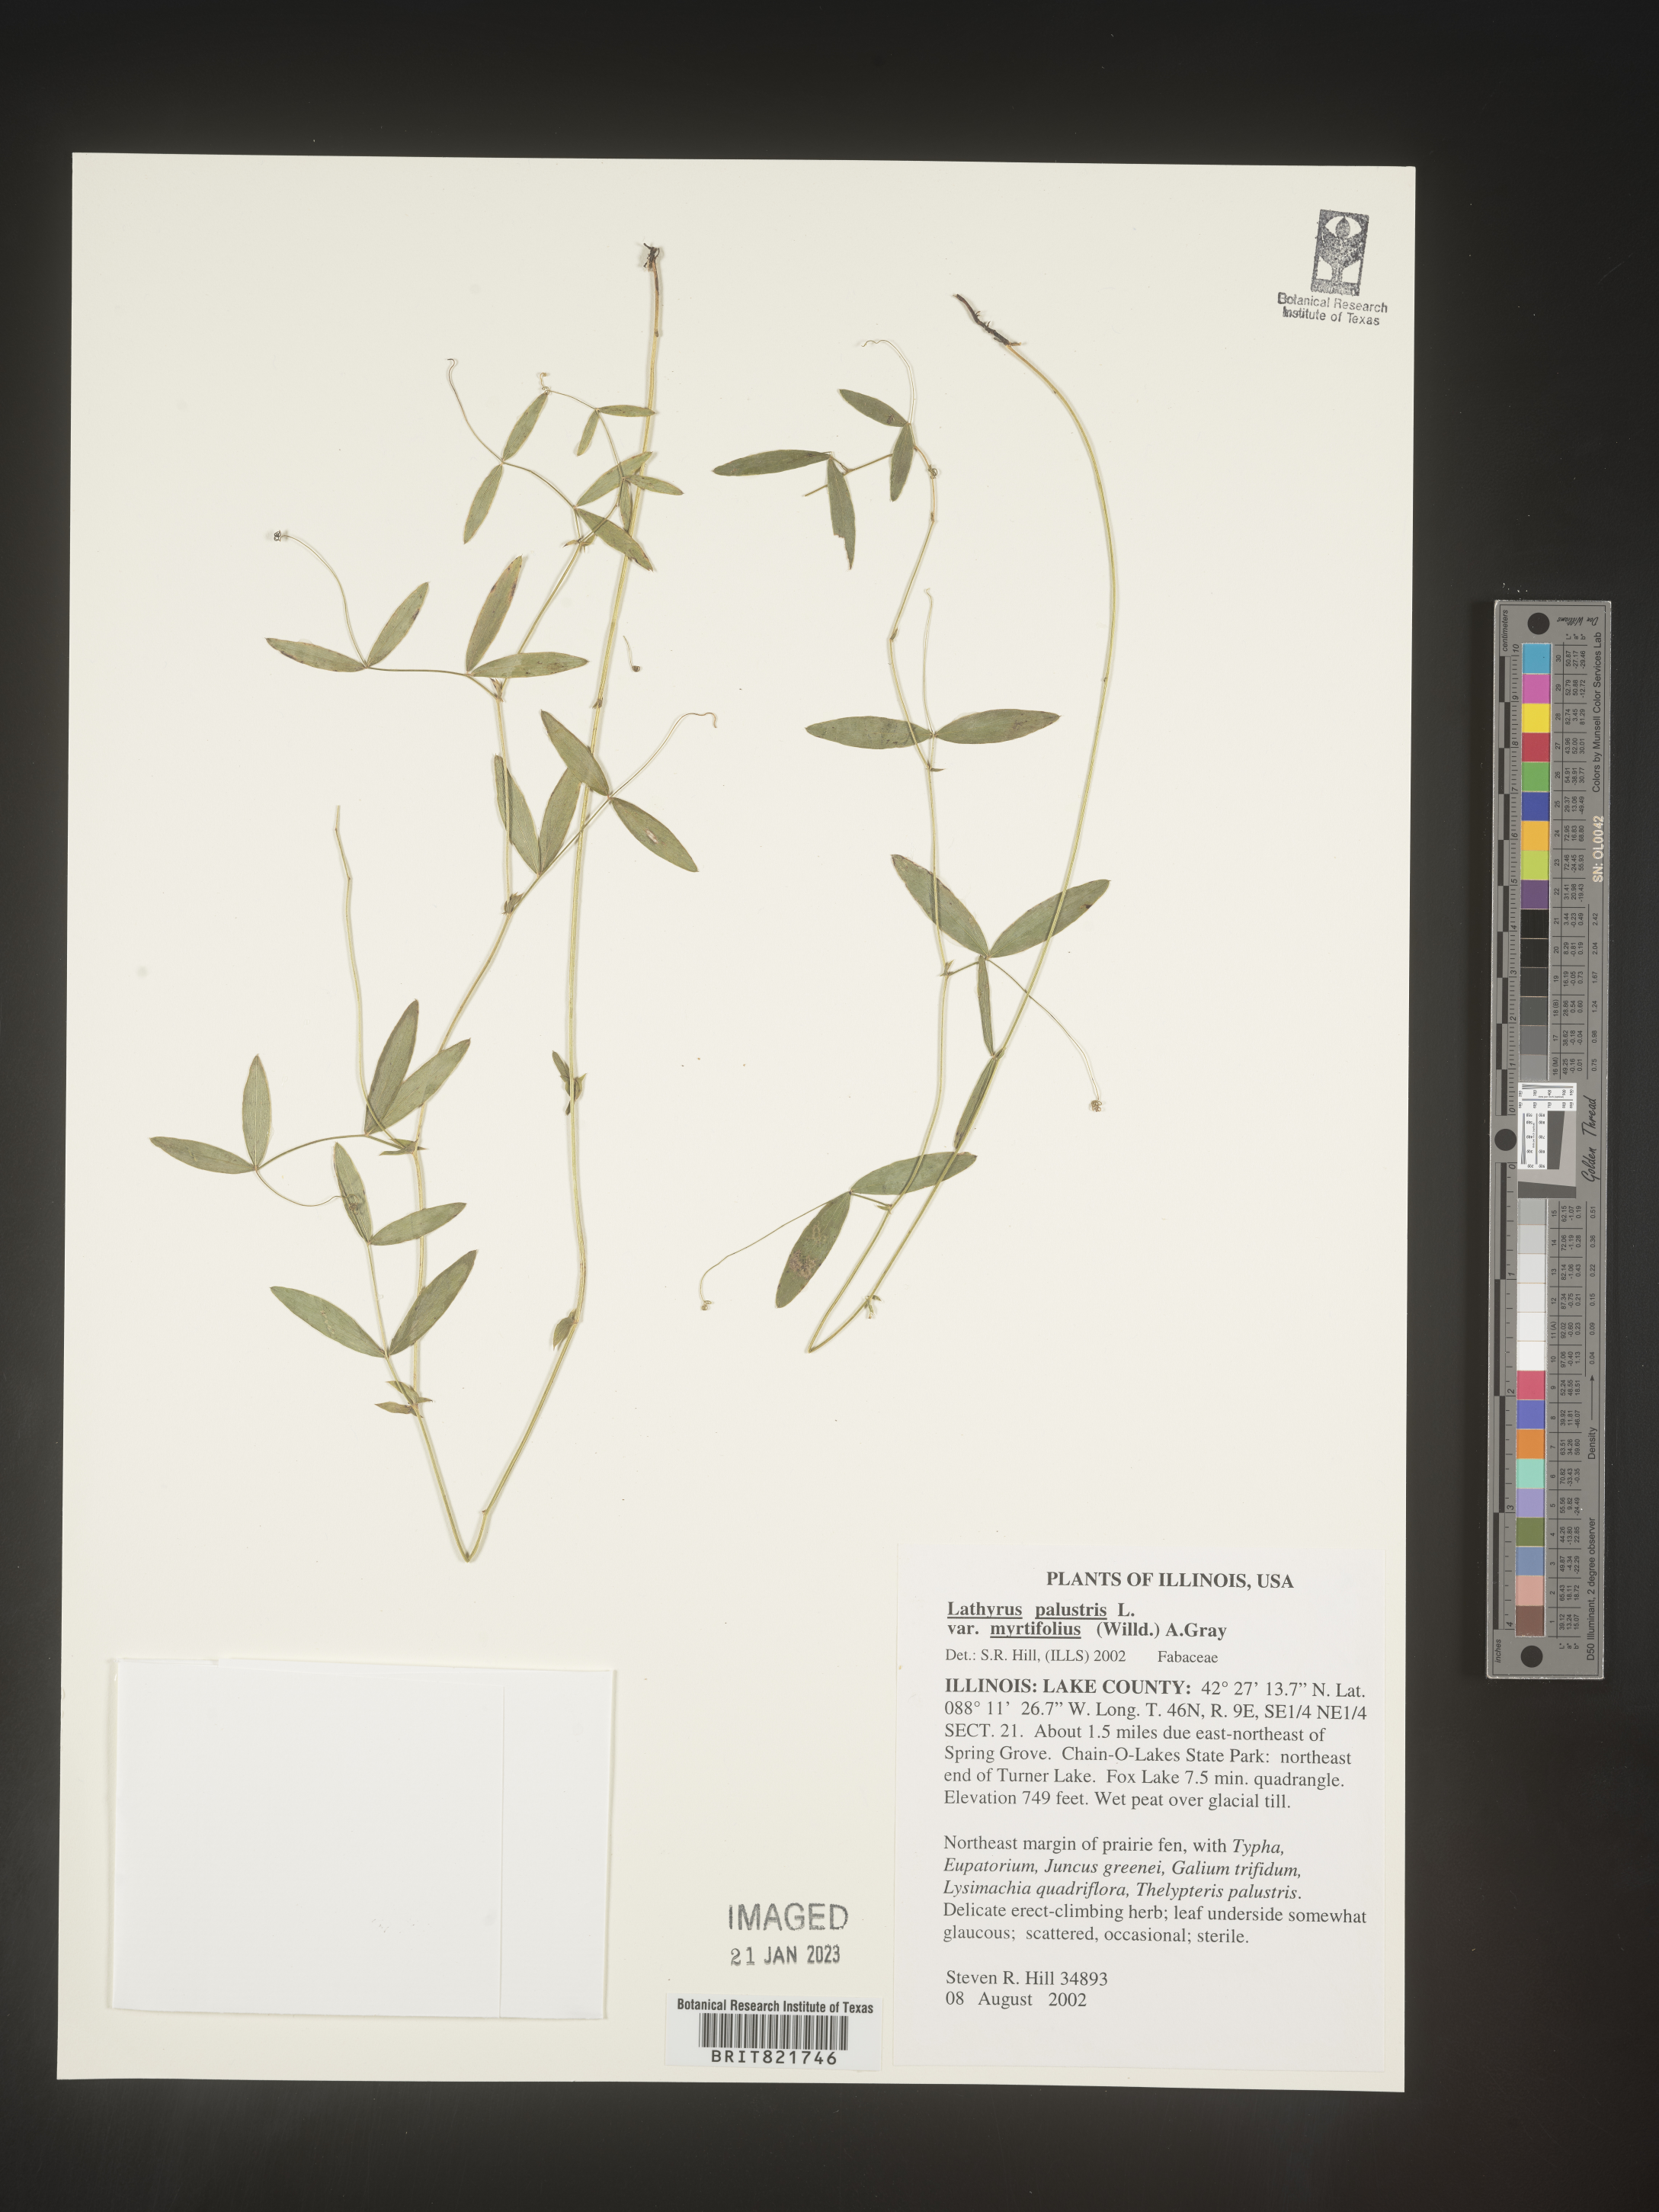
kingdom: Plantae
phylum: Tracheophyta
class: Magnoliopsida
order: Fabales
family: Fabaceae
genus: Lathyrus
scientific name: Lathyrus palustris
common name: Marsh pea
